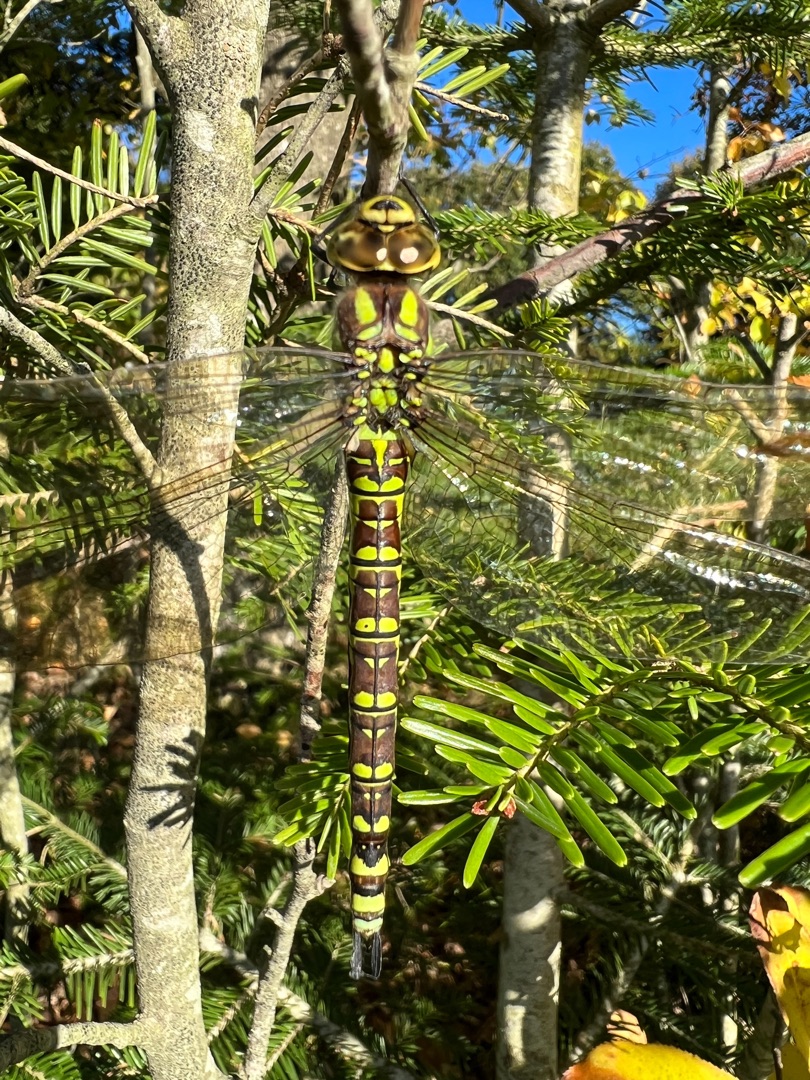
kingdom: Animalia
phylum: Arthropoda
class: Insecta
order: Odonata
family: Aeshnidae
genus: Aeshna
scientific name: Aeshna cyanea
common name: Blå mosaikguldsmed
